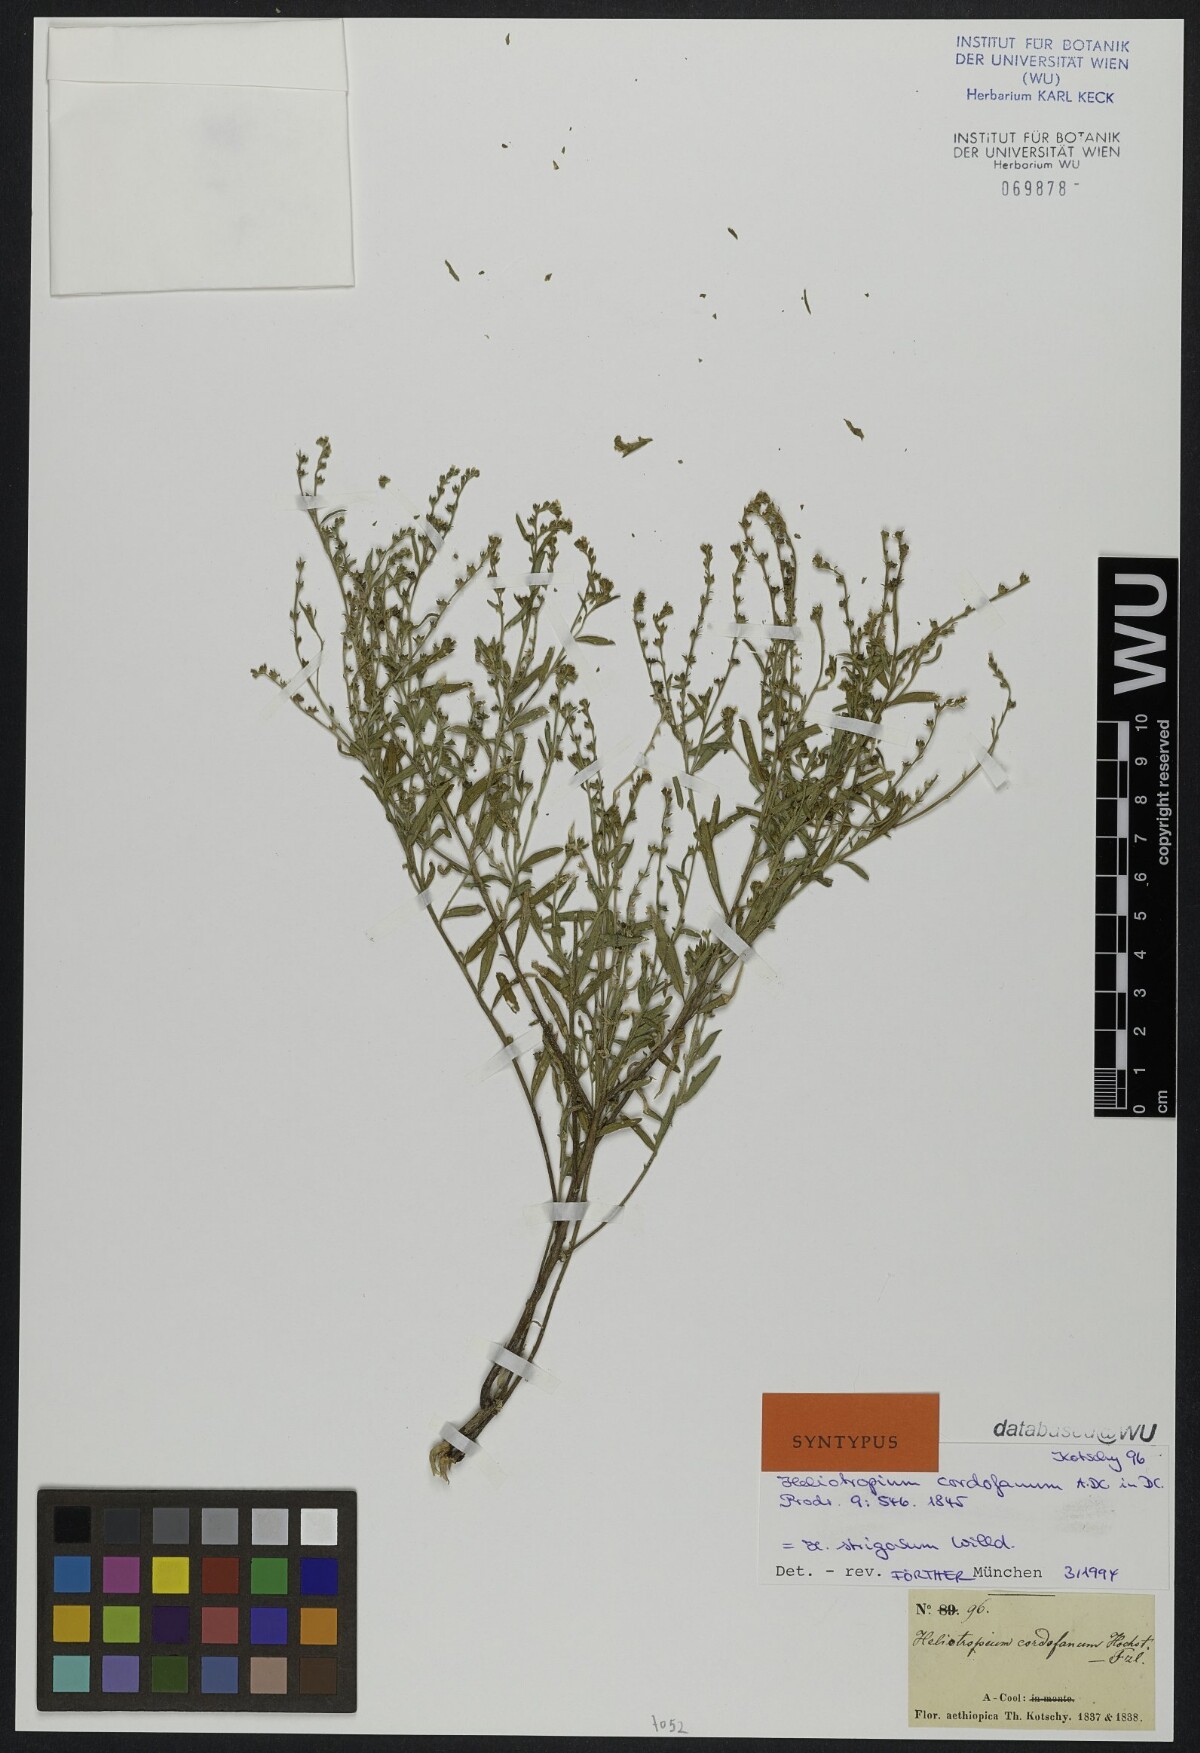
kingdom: Plantae
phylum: Tracheophyta
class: Magnoliopsida
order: Boraginales
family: Heliotropiaceae
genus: Euploca
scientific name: Euploca strigosa
